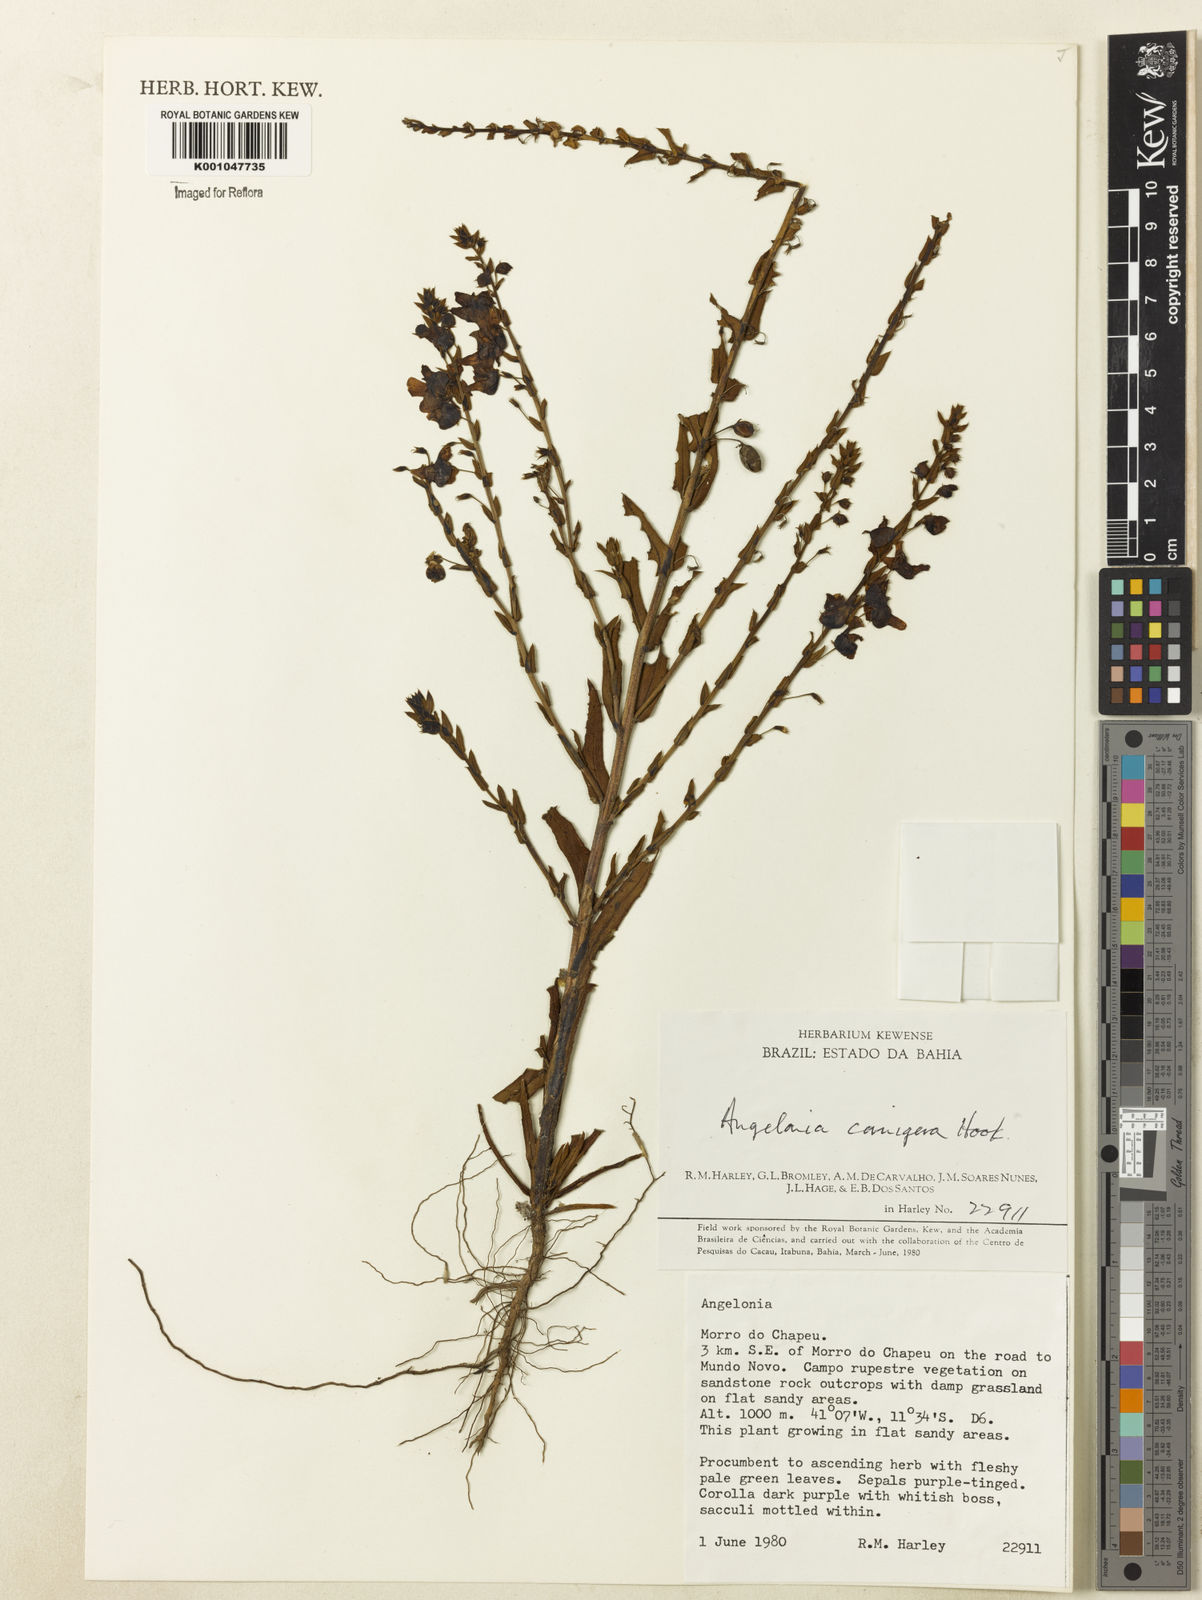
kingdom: Plantae
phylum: Tracheophyta
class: Magnoliopsida
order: Lamiales
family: Plantaginaceae
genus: Angelonia
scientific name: Angelonia cornigera
